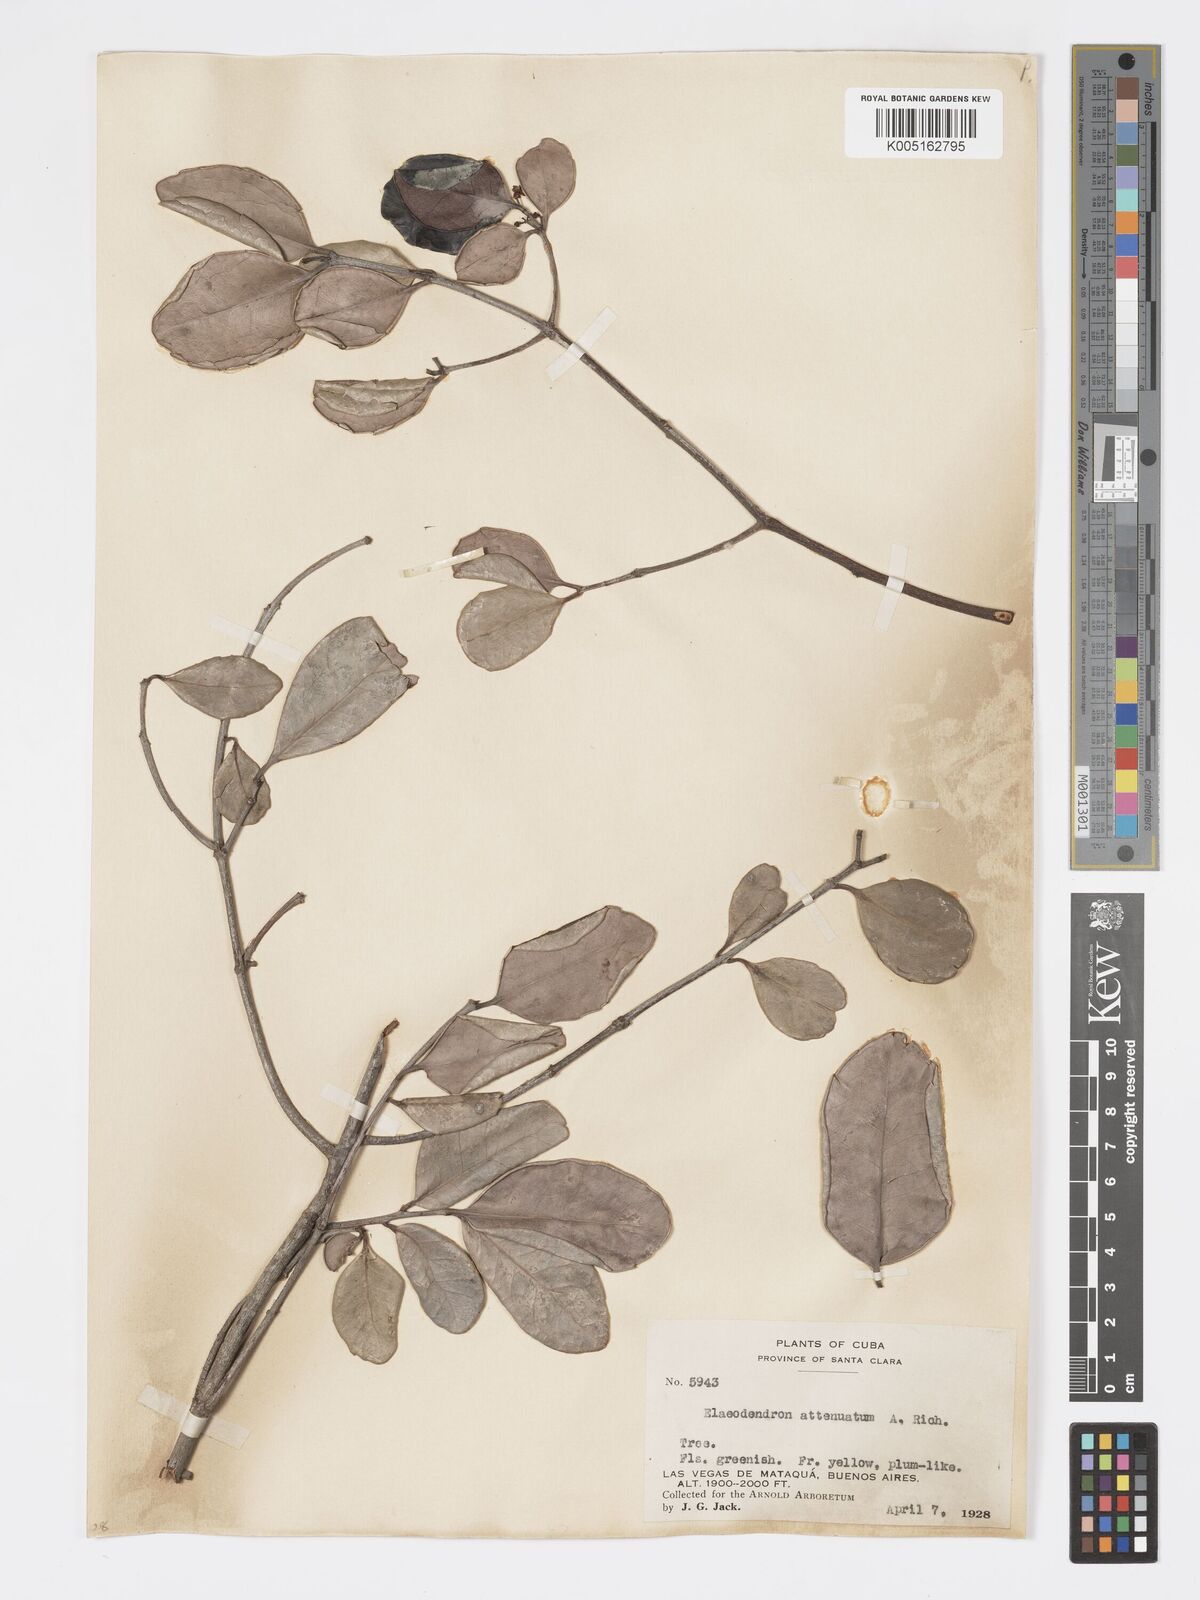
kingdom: Plantae
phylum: Tracheophyta
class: Magnoliopsida
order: Celastrales
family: Celastraceae
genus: Elaeodendron
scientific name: Elaeodendron xylocarpum
